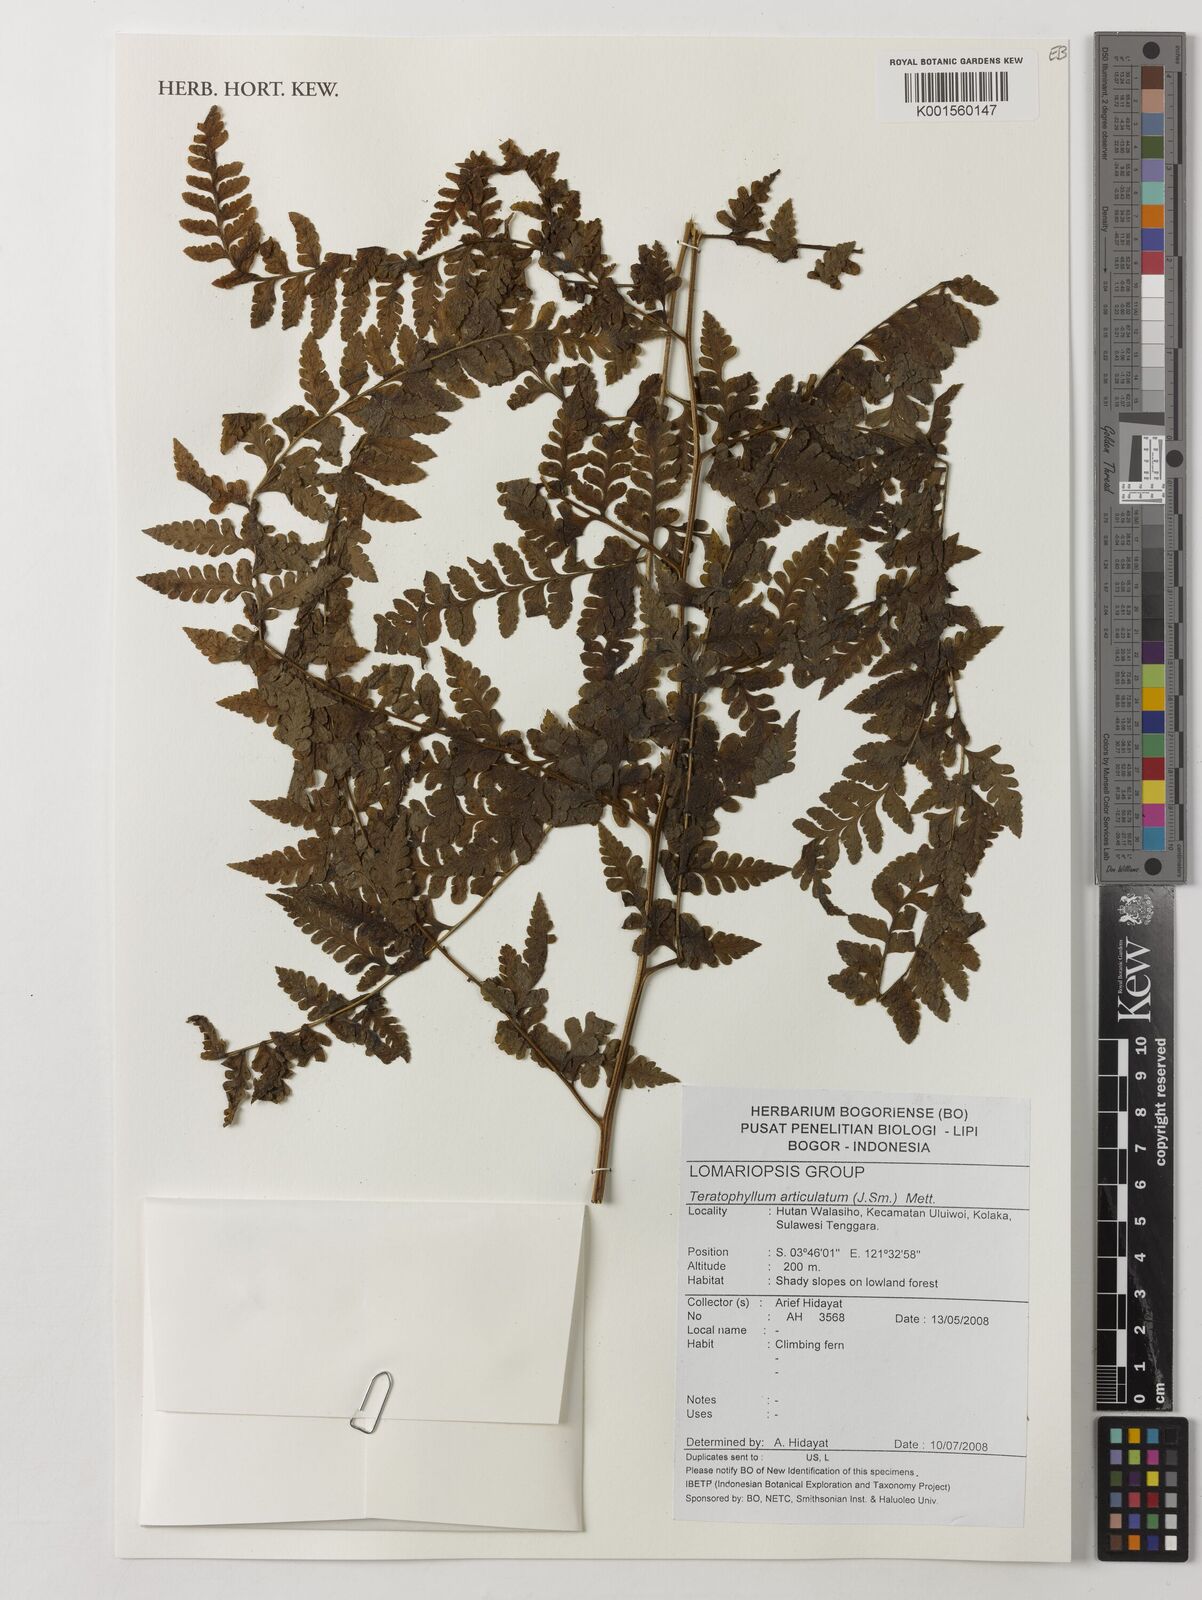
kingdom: Plantae
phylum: Tracheophyta
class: Polypodiopsida
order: Polypodiales
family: Dryopteridaceae
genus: Arthrobotrya
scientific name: Arthrobotrya articulata
